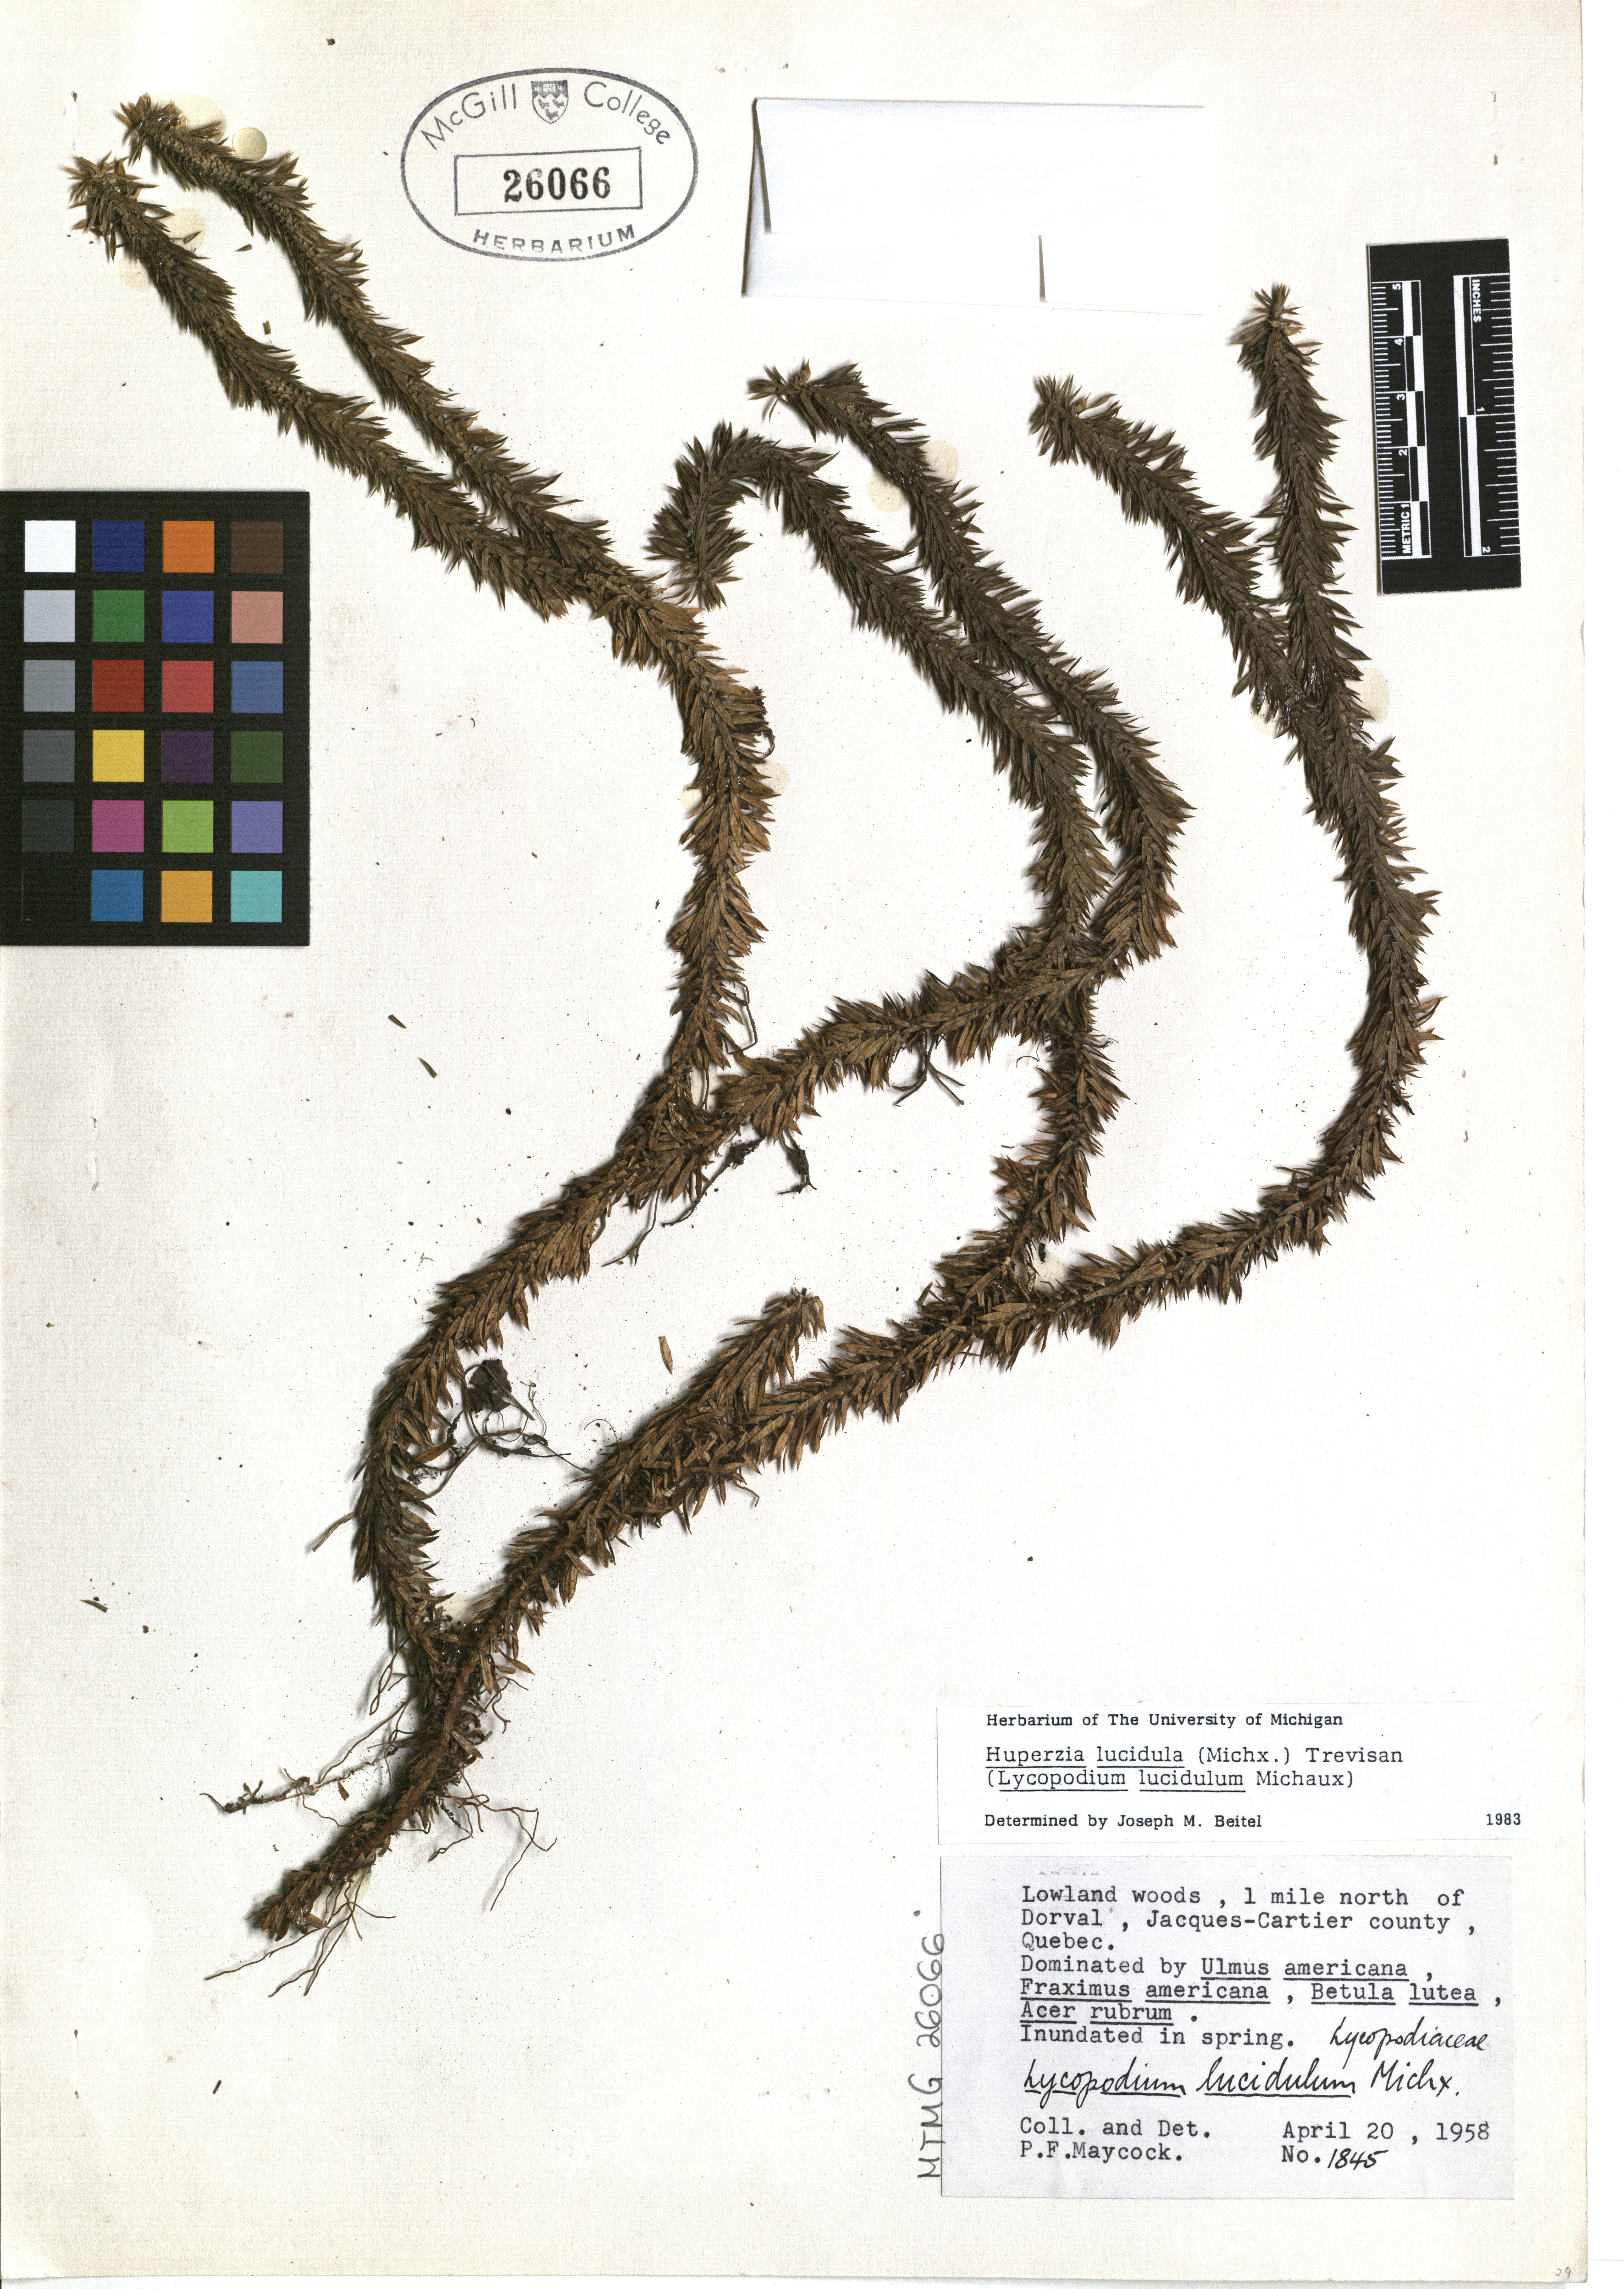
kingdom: Plantae
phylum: Tracheophyta
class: Lycopodiopsida
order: Lycopodiales
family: Lycopodiaceae
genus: Huperzia
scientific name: Huperzia lucidula
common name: Shining clubmoss
